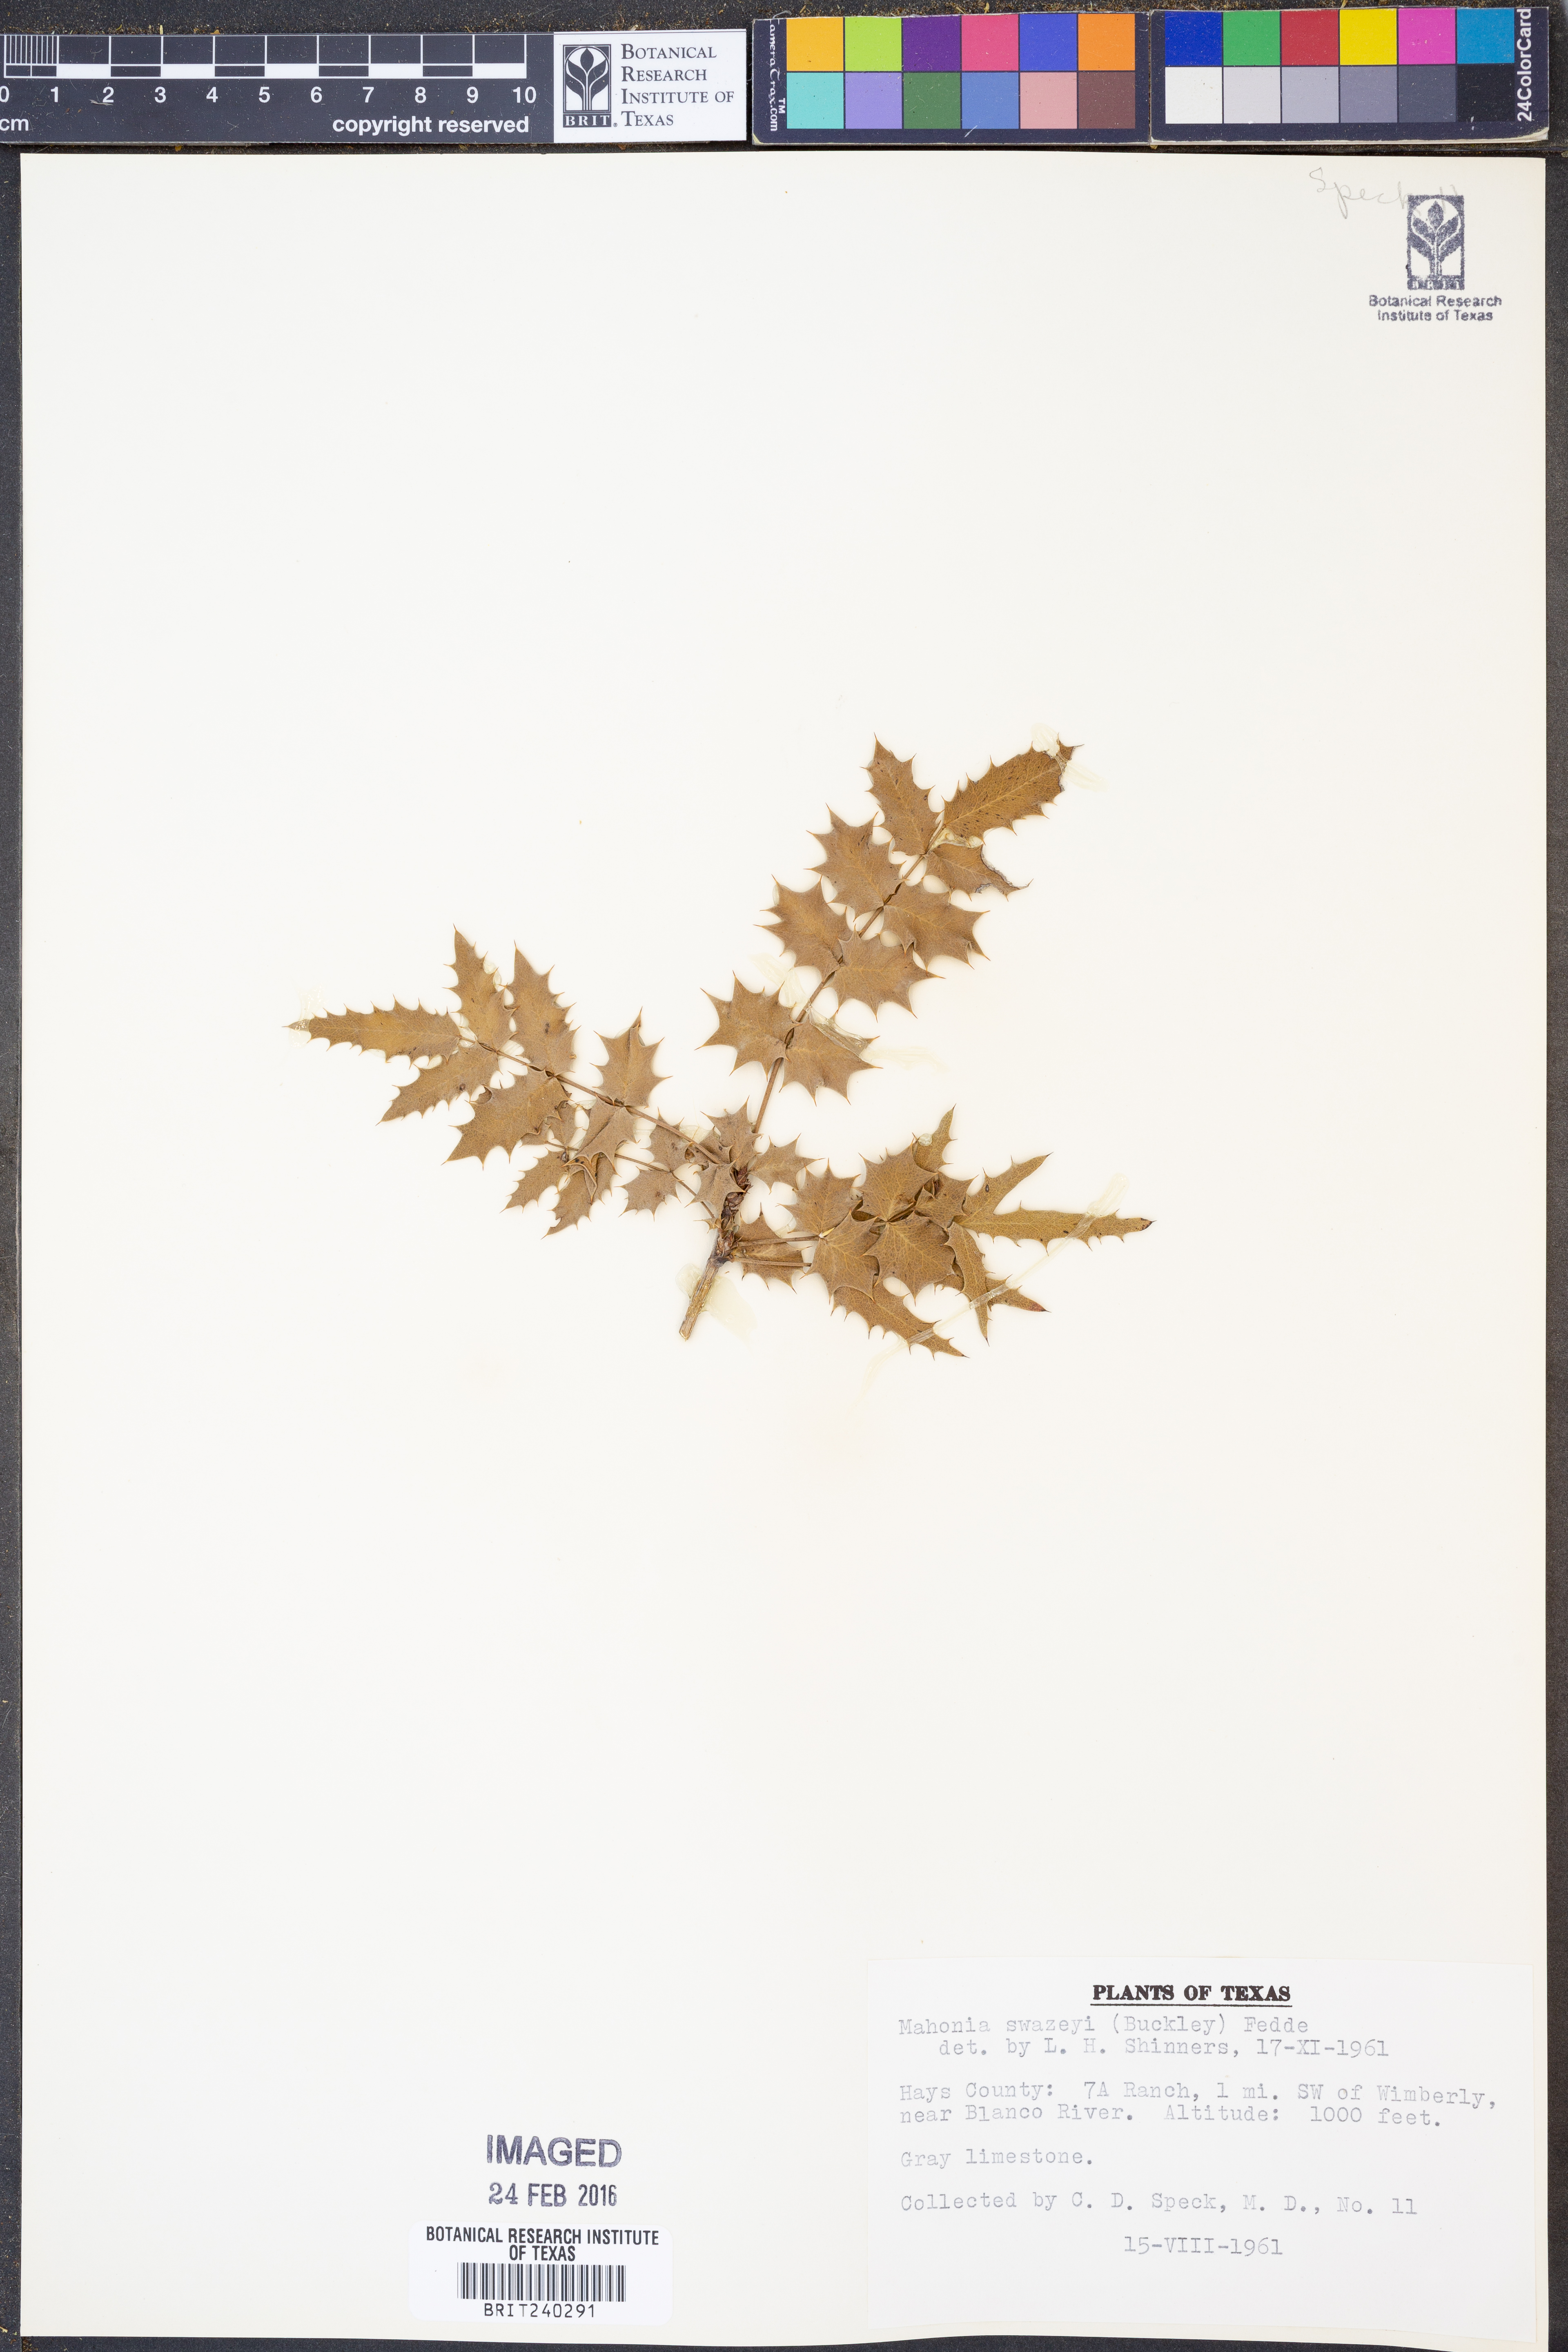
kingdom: Plantae
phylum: Tracheophyta
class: Magnoliopsida
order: Ranunculales
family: Berberidaceae
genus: Alloberberis
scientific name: Alloberberis swaseyi
